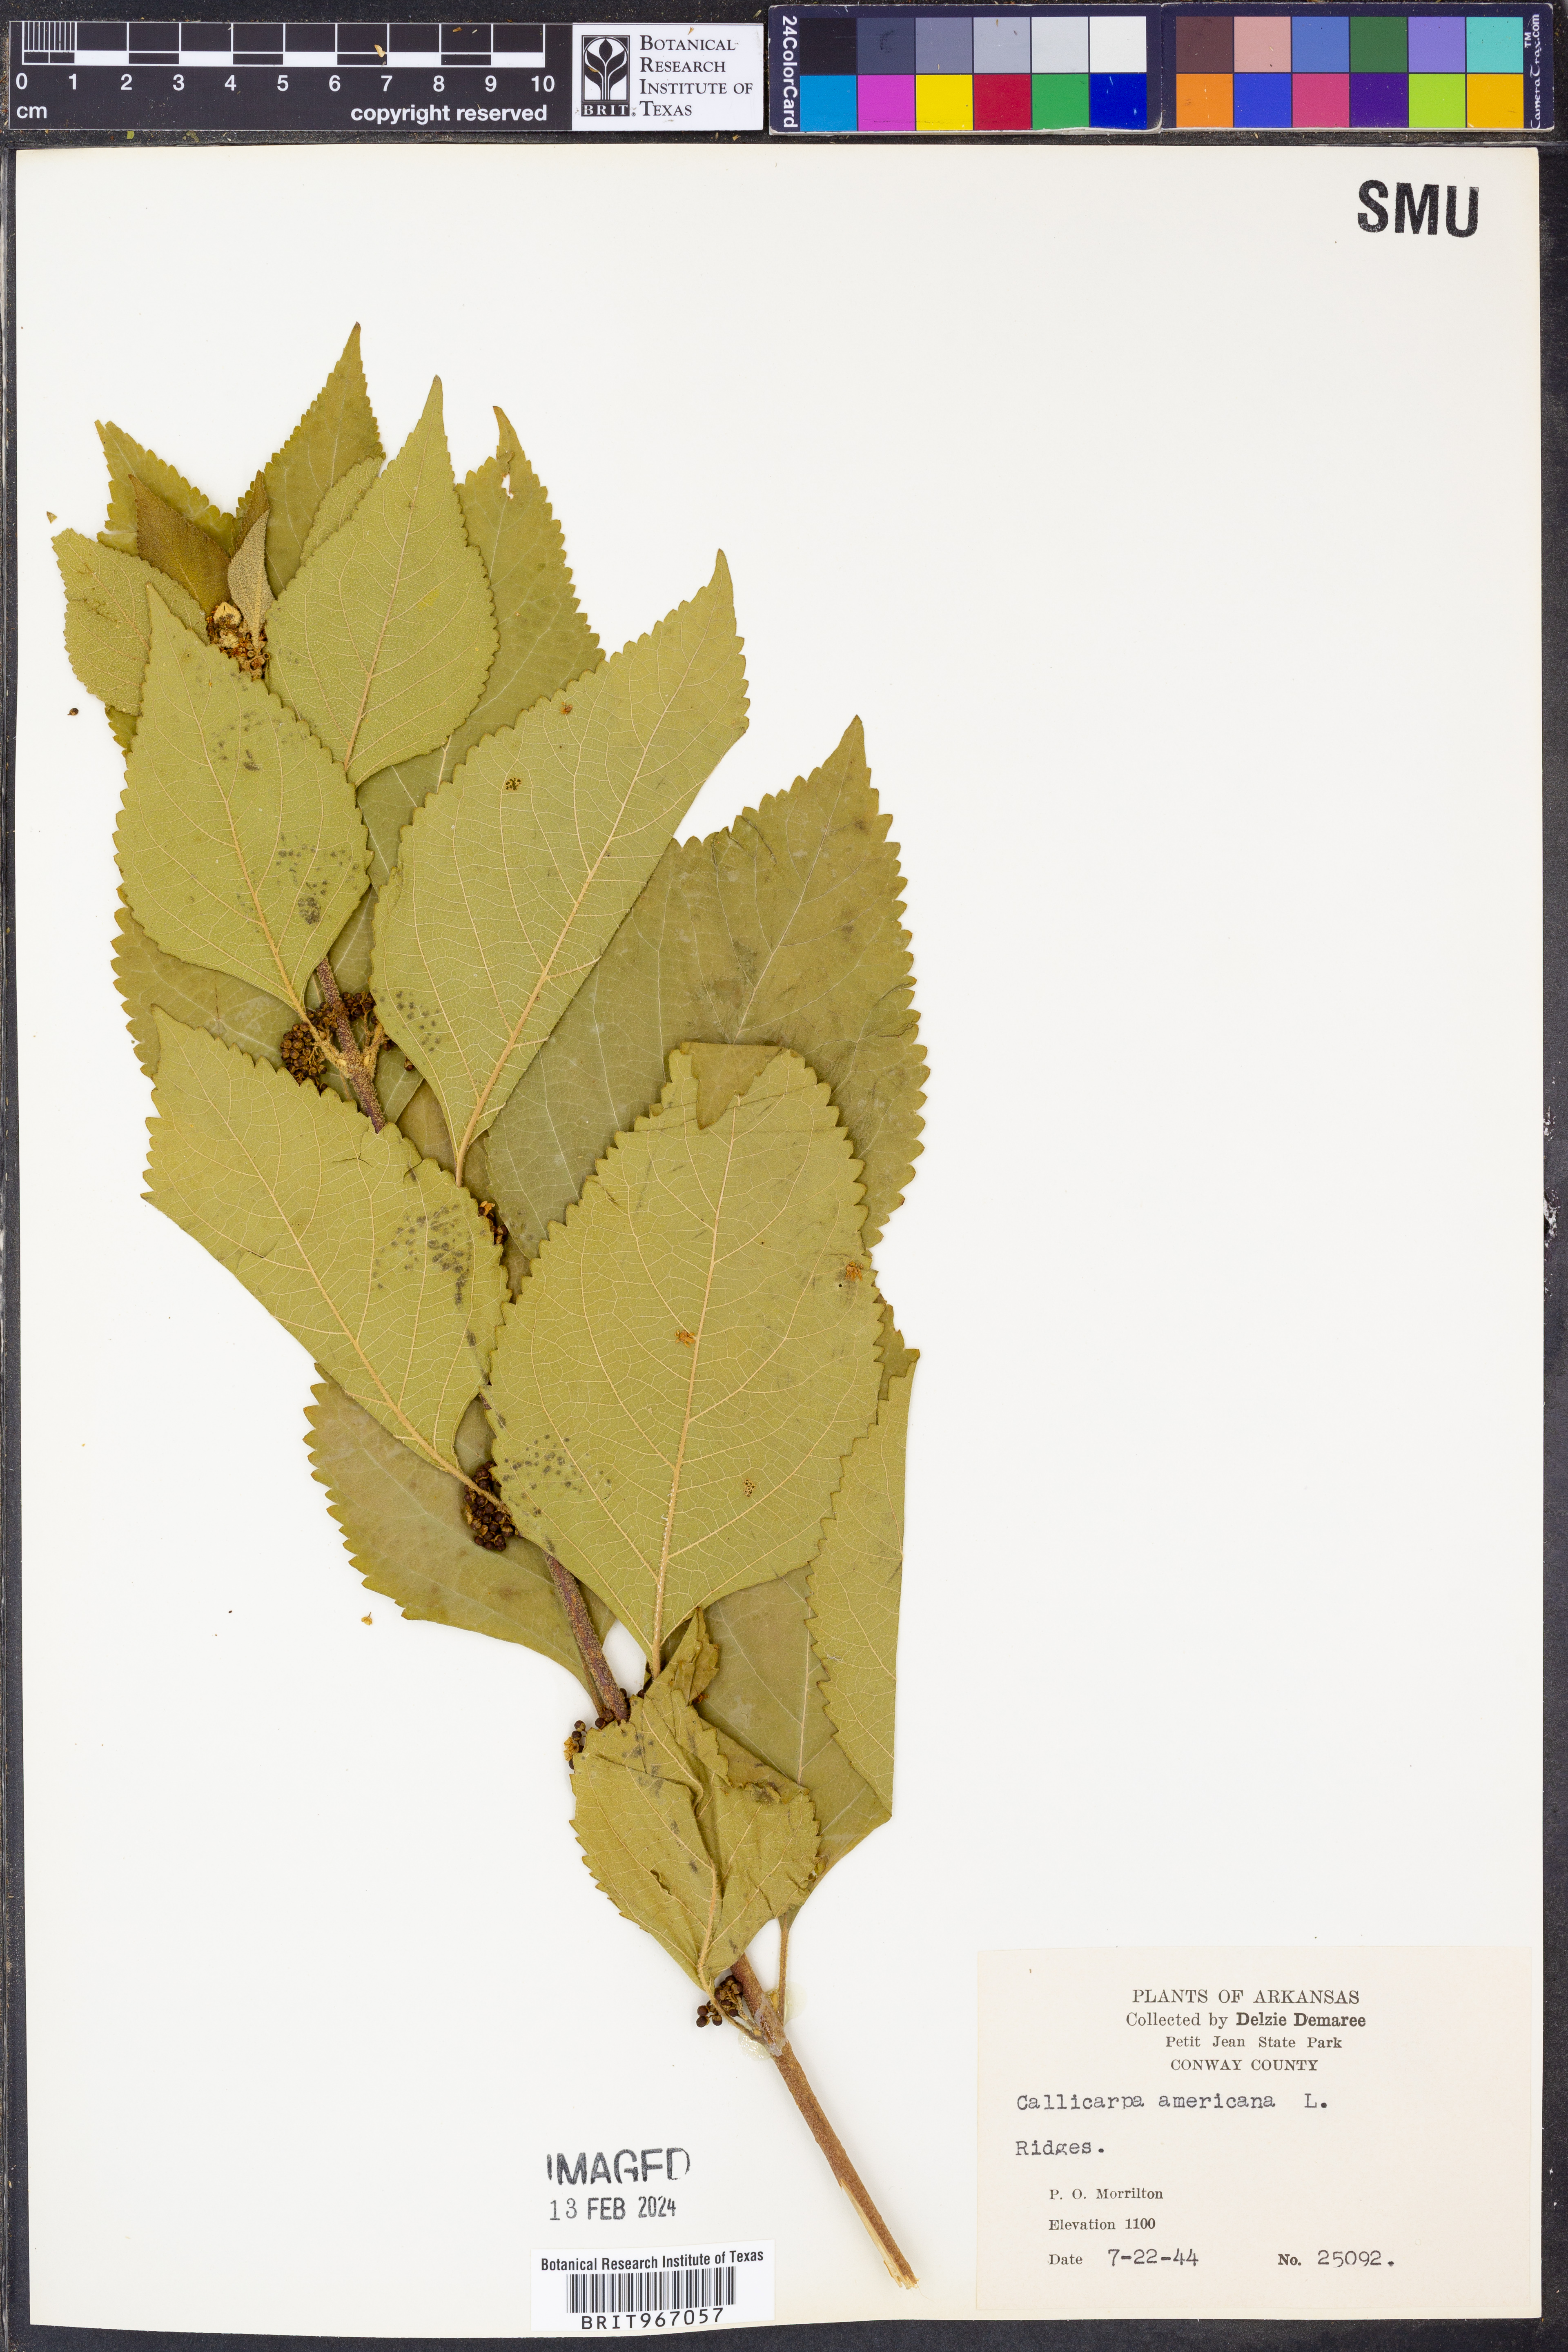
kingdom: Plantae
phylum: Tracheophyta
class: Magnoliopsida
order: Lamiales
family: Lamiaceae
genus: Callicarpa
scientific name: Callicarpa americana
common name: American beautyberry
